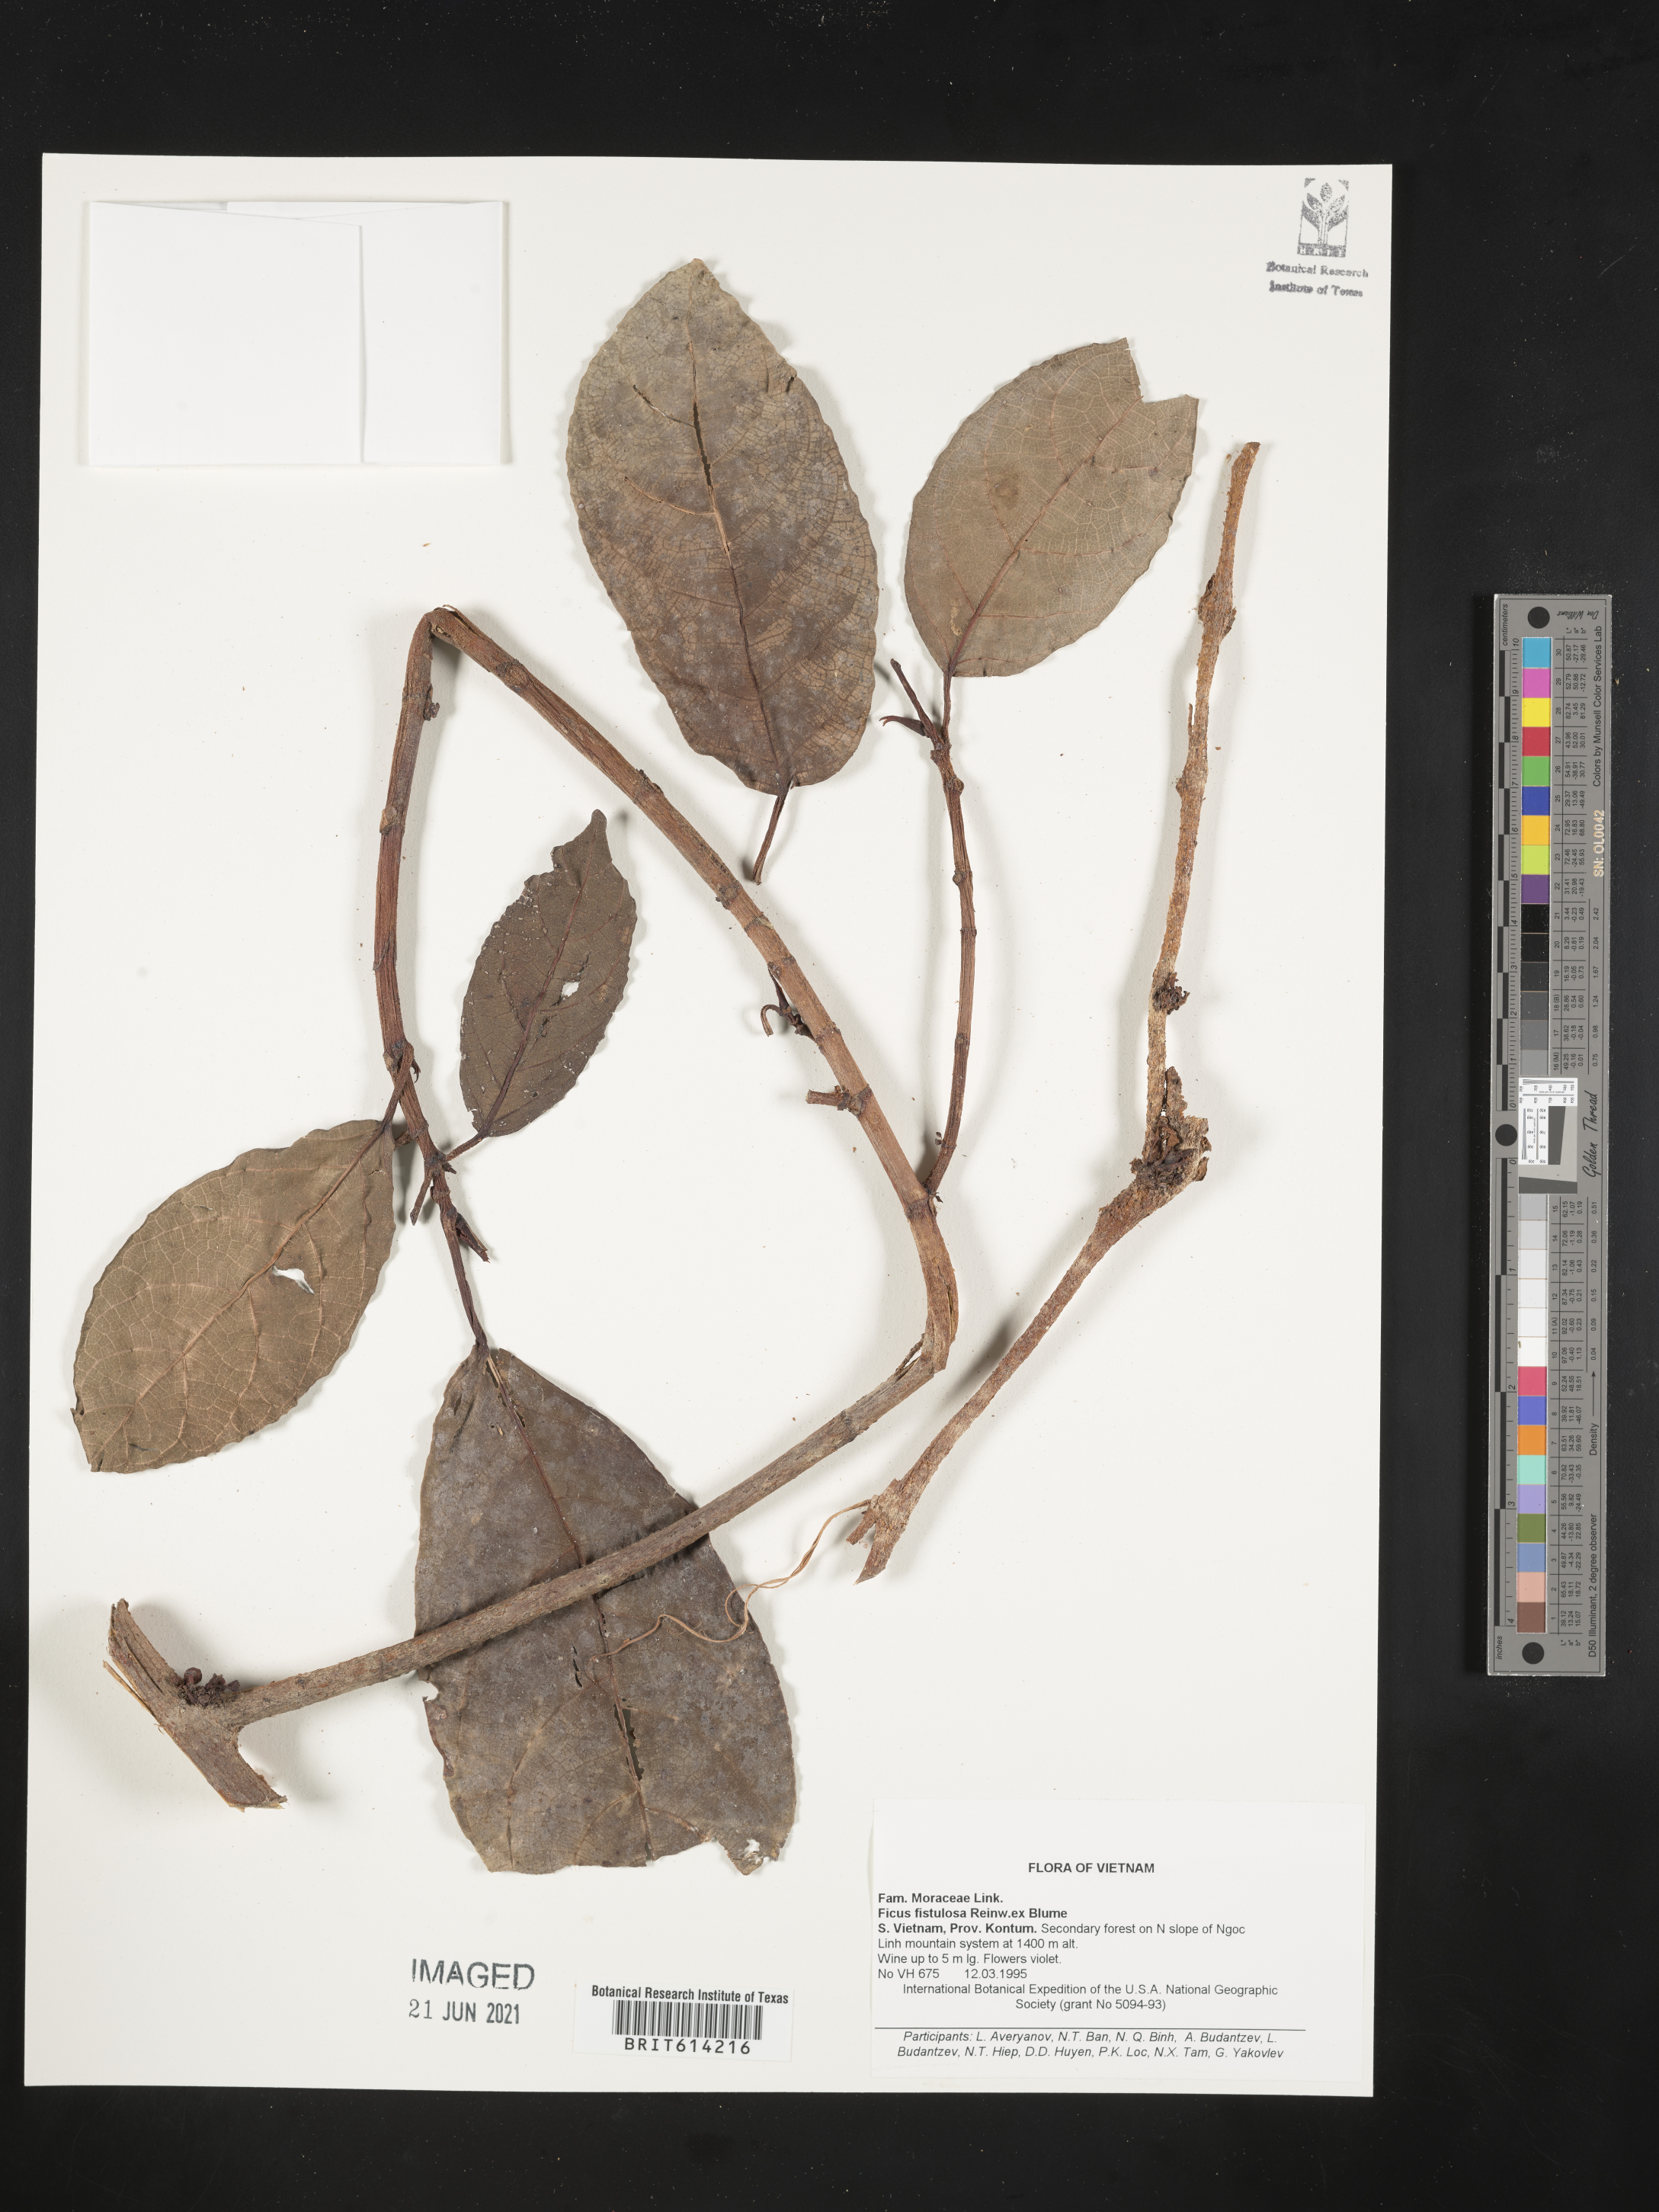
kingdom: Plantae
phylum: Tracheophyta
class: Magnoliopsida
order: Rosales
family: Moraceae
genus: Ficus
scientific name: Ficus fistulosa
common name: Figs
